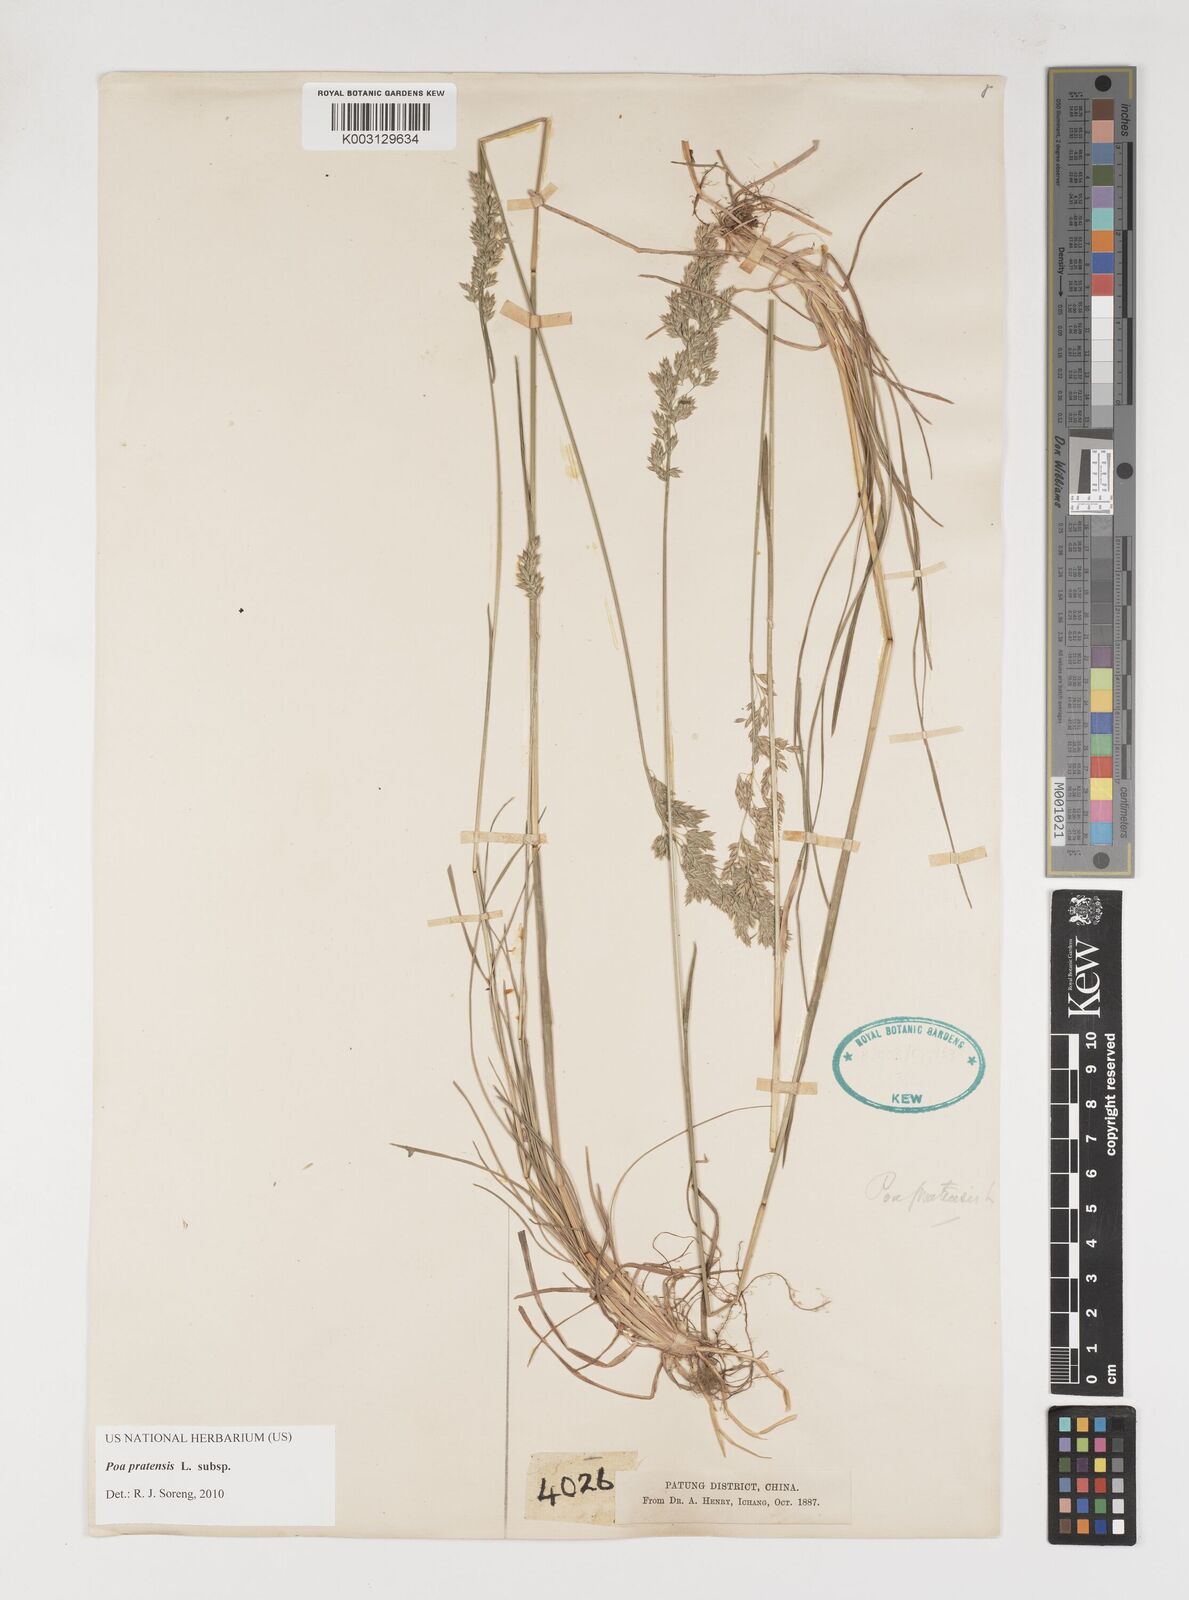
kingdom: Plantae
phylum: Tracheophyta
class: Liliopsida
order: Poales
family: Poaceae
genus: Poa
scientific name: Poa angustifolia
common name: Narrow-leaved meadow-grass
